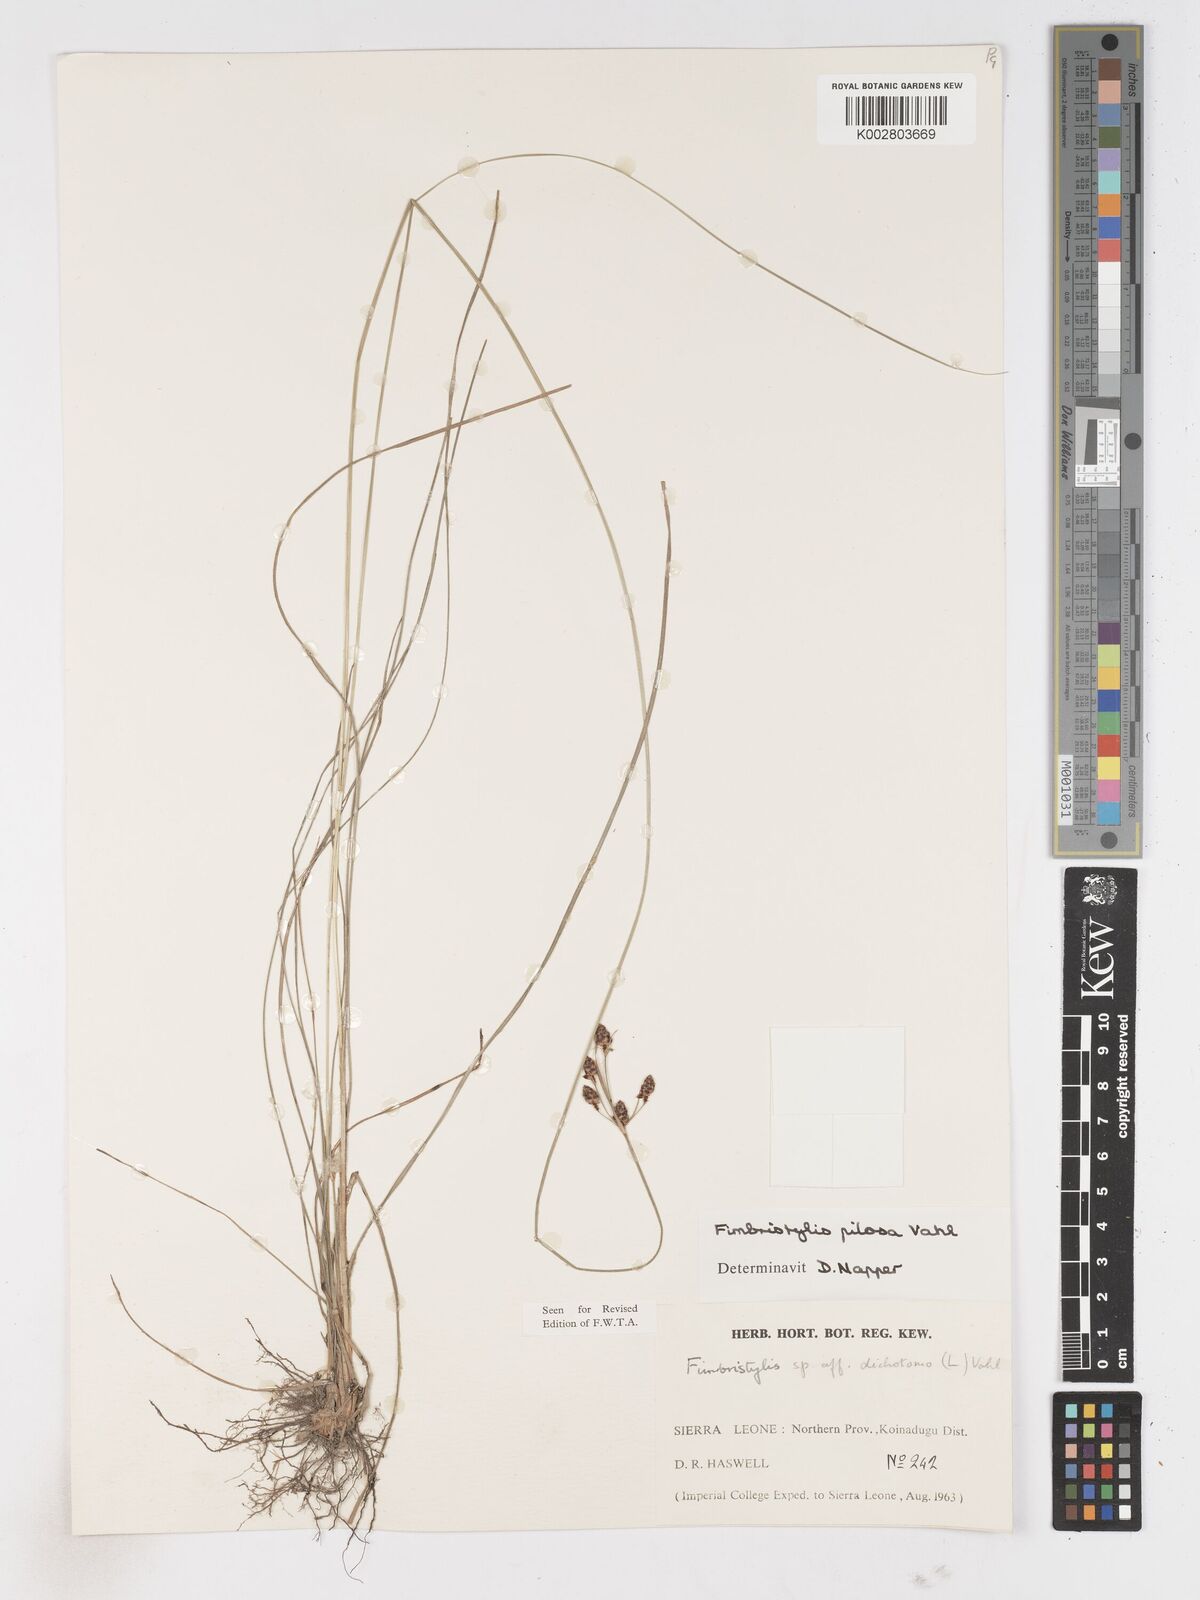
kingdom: Plantae
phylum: Tracheophyta
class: Liliopsida
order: Poales
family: Cyperaceae
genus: Fimbristylis
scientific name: Fimbristylis pilosa
